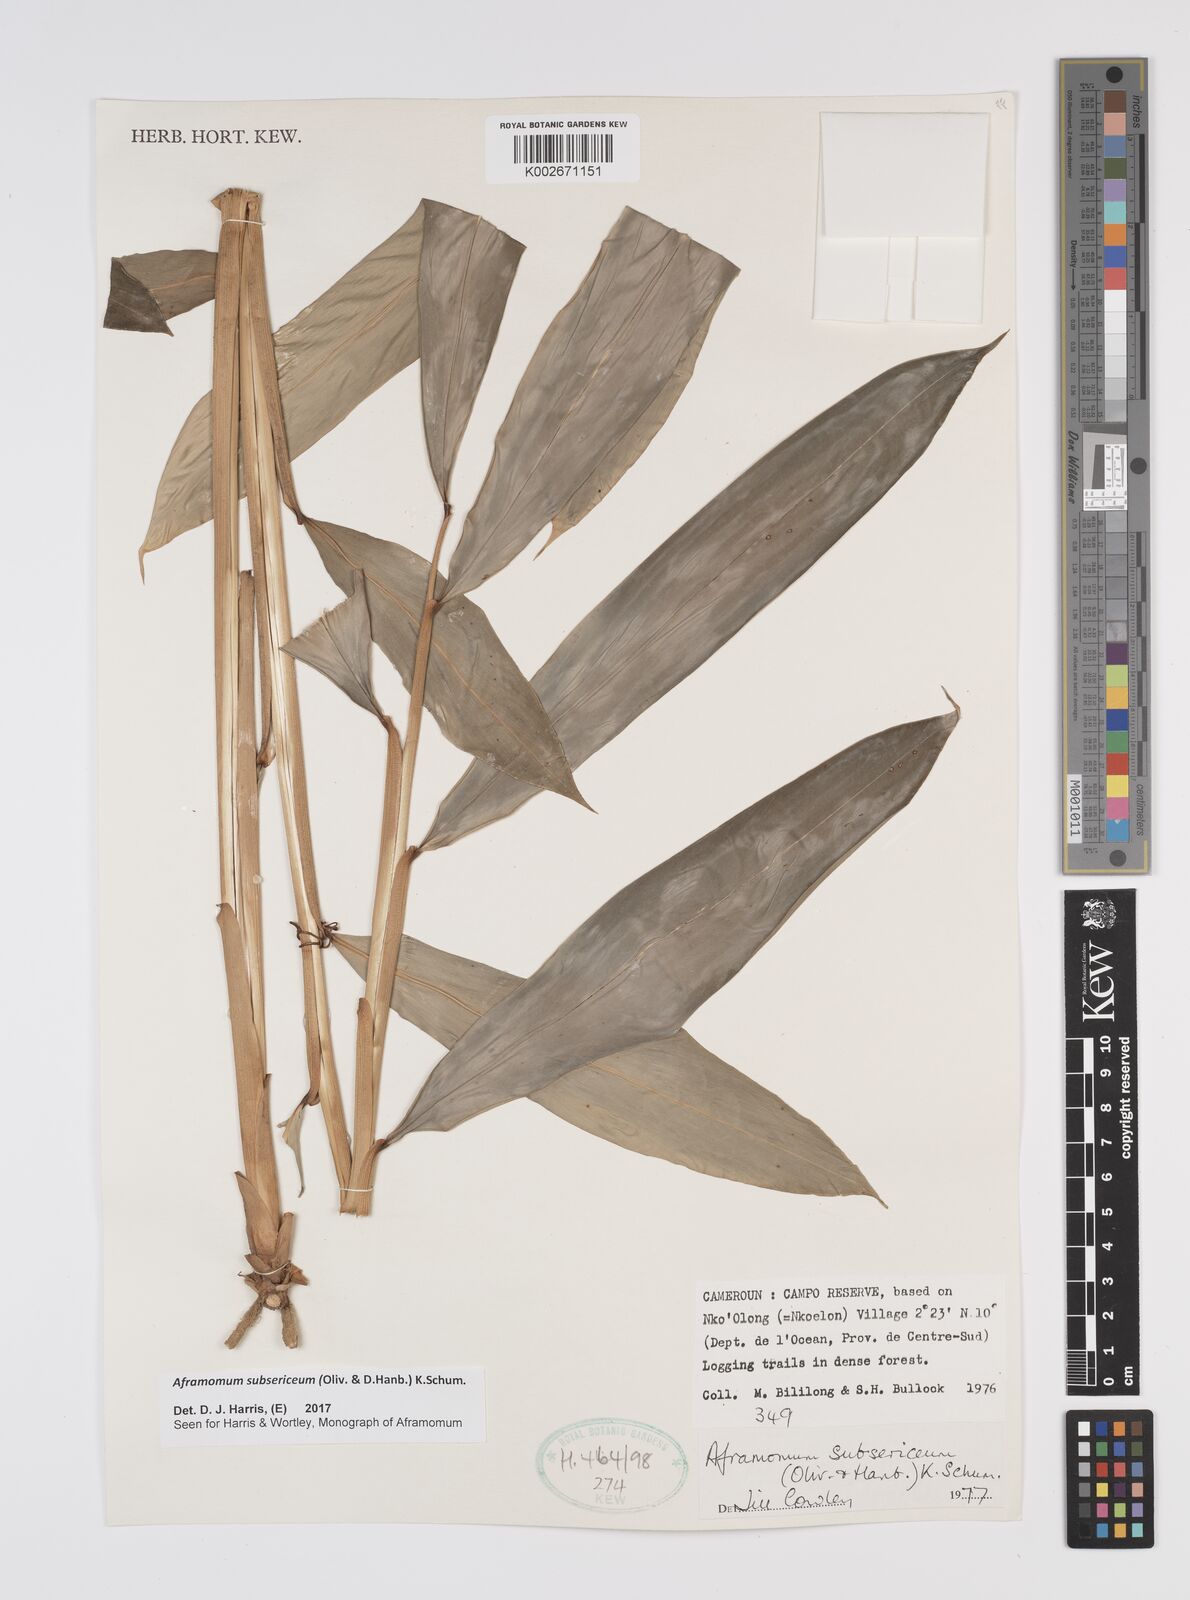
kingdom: Plantae
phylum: Tracheophyta
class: Liliopsida
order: Zingiberales
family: Zingiberaceae
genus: Aframomum
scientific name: Aframomum subsericeum
